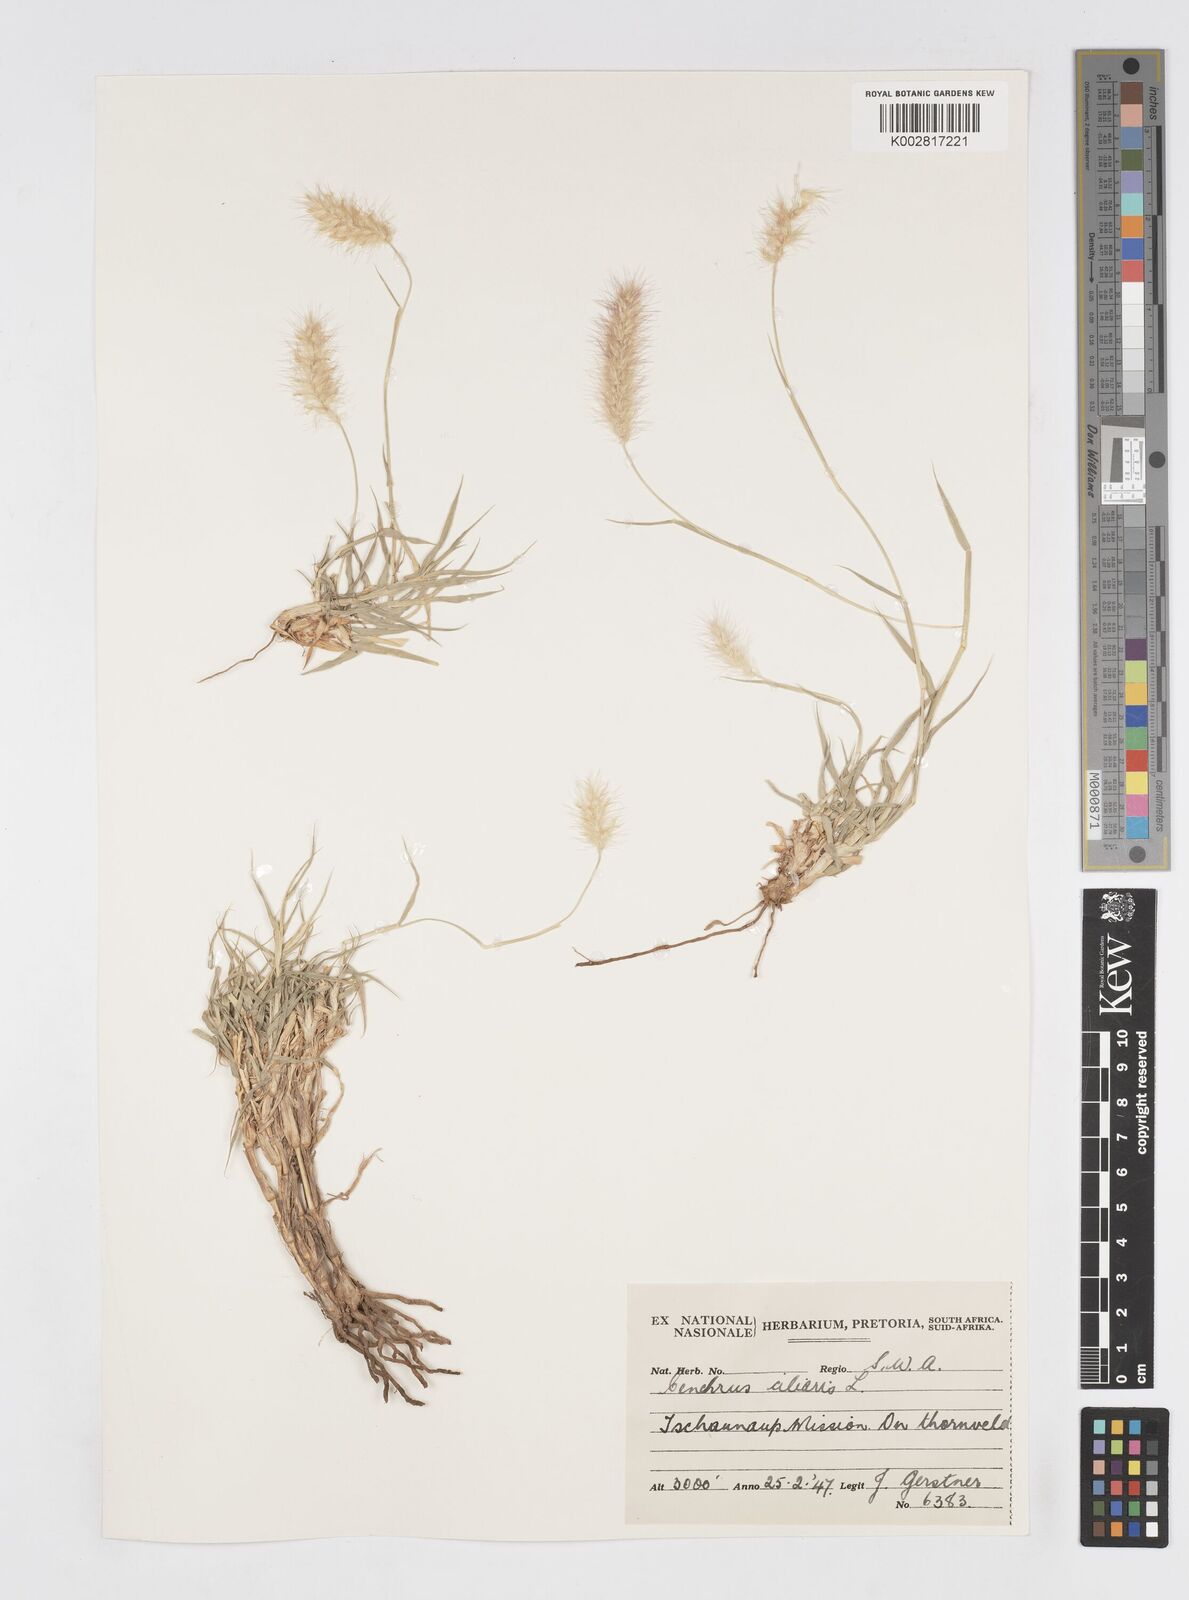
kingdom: Plantae
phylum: Tracheophyta
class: Liliopsida
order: Poales
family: Poaceae
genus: Cenchrus
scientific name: Cenchrus ciliaris
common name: Buffelgrass
